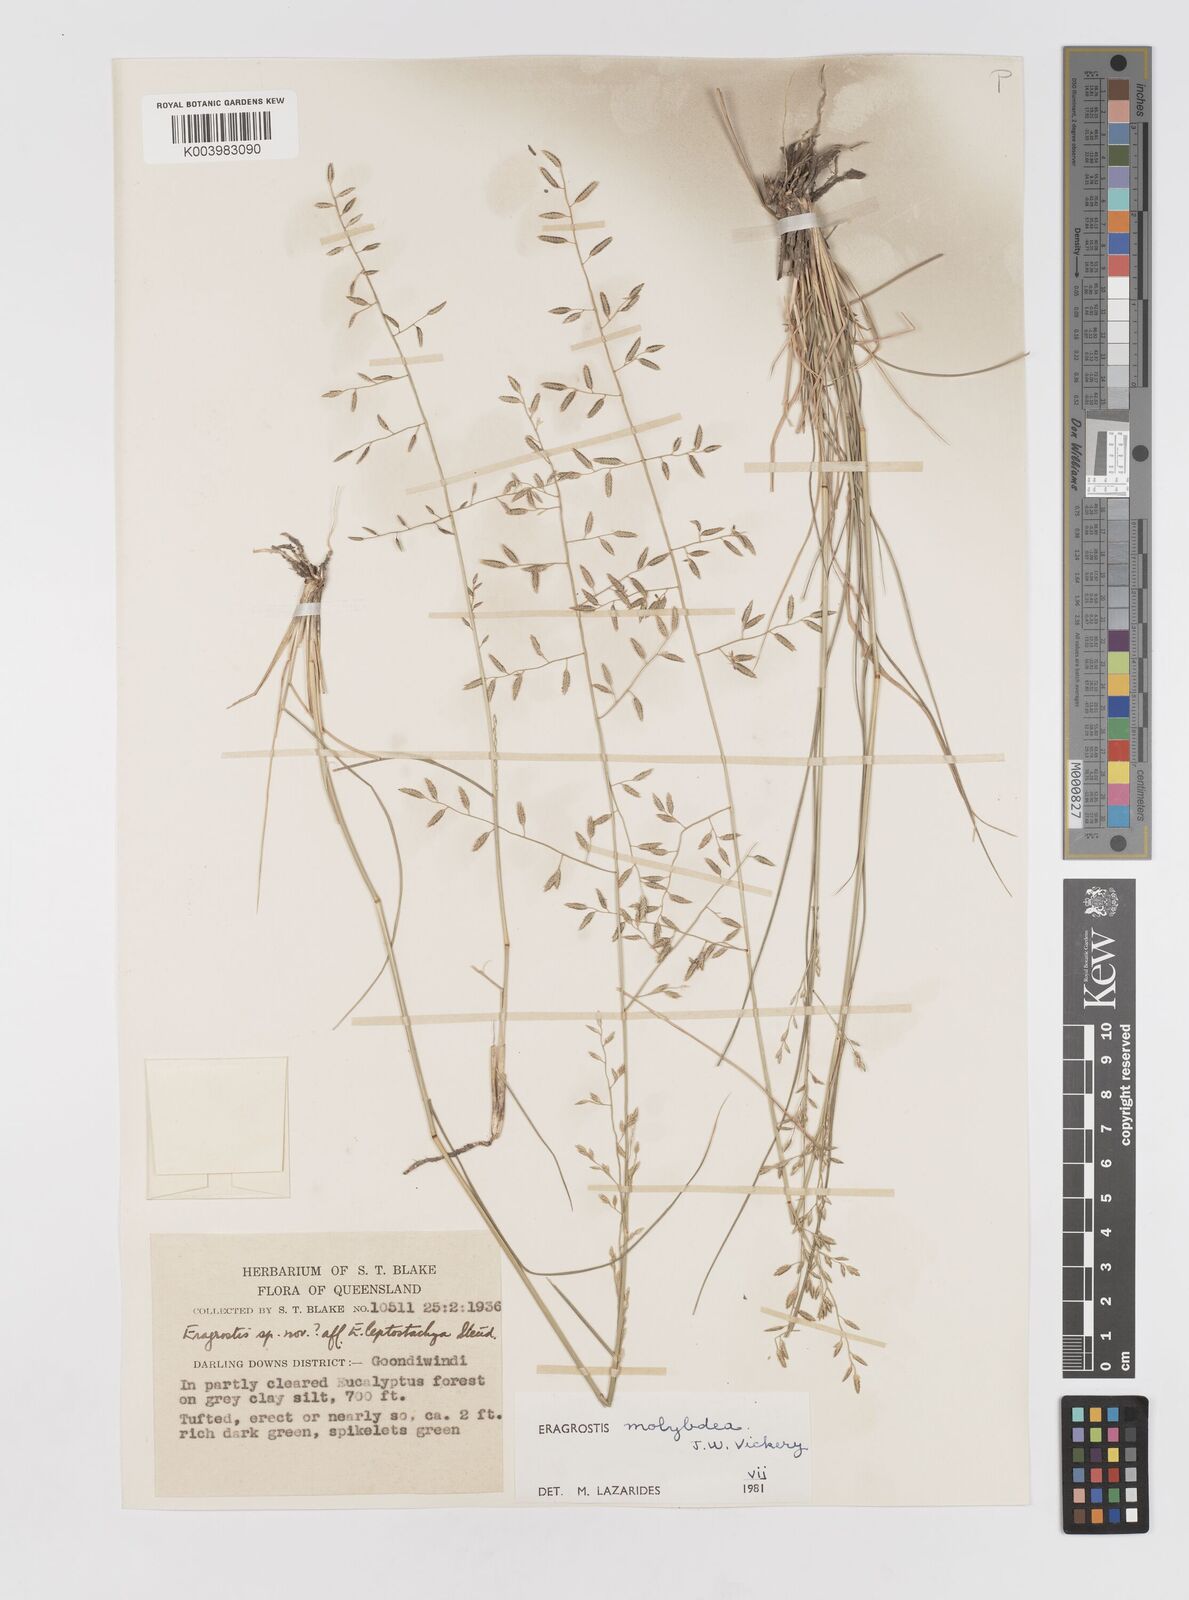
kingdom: Plantae
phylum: Tracheophyta
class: Liliopsida
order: Poales
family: Poaceae
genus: Eragrostis
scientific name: Eragrostis leptostachya
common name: Australian lovegrass
